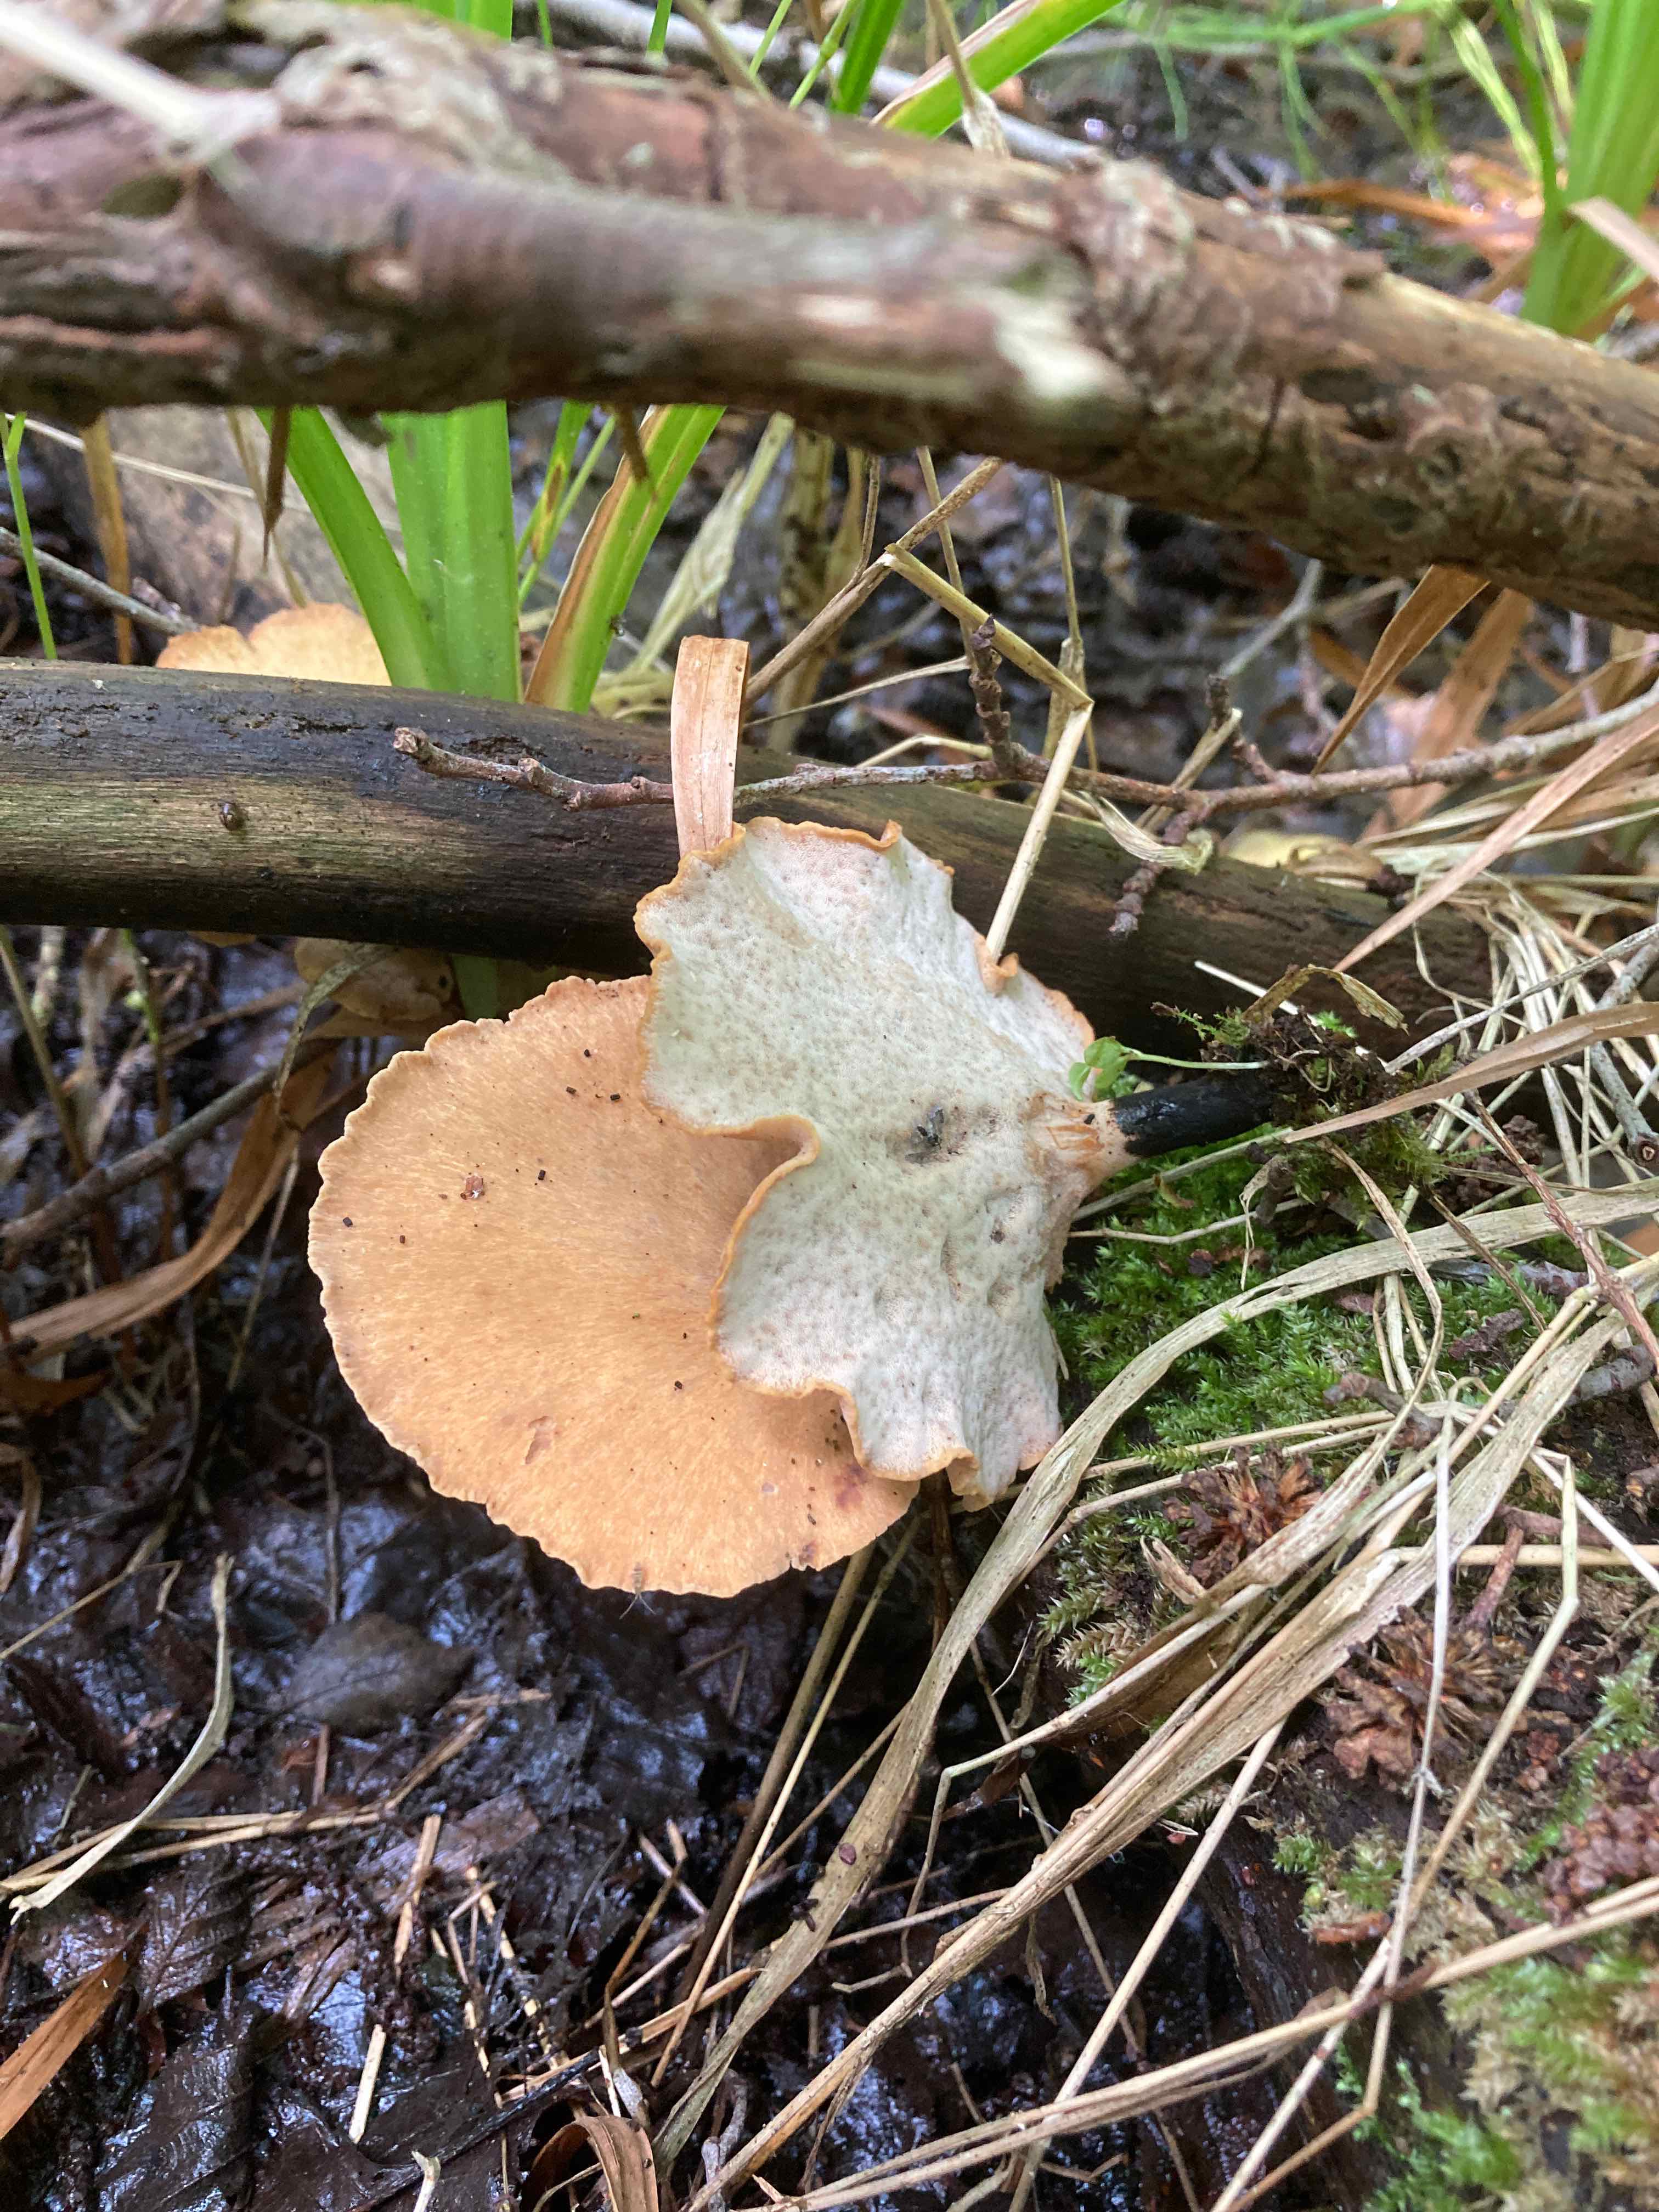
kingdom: Fungi
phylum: Basidiomycota
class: Agaricomycetes
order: Polyporales
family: Polyporaceae
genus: Cerioporus
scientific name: Cerioporus varius
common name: foranderlig stilkporesvamp
